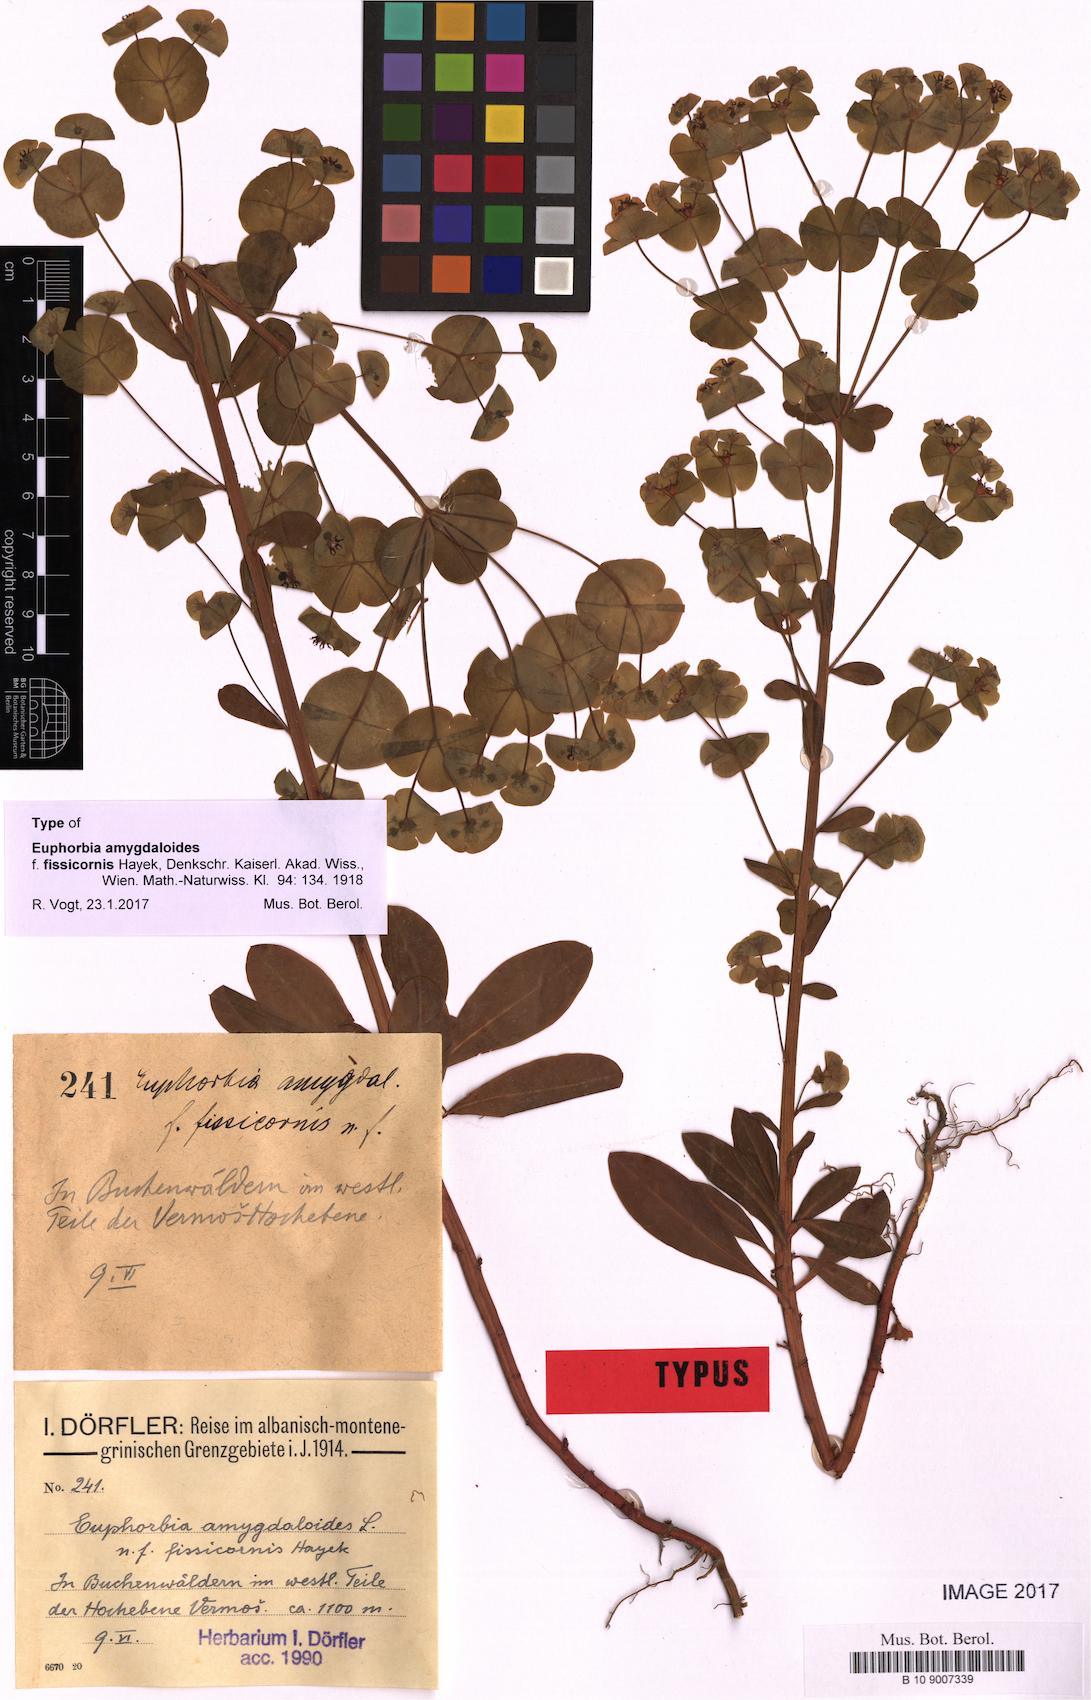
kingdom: Plantae
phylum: Tracheophyta
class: Magnoliopsida
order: Malpighiales
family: Euphorbiaceae
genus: Euphorbia
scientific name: Euphorbia amygdaloides
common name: Wood spurge
